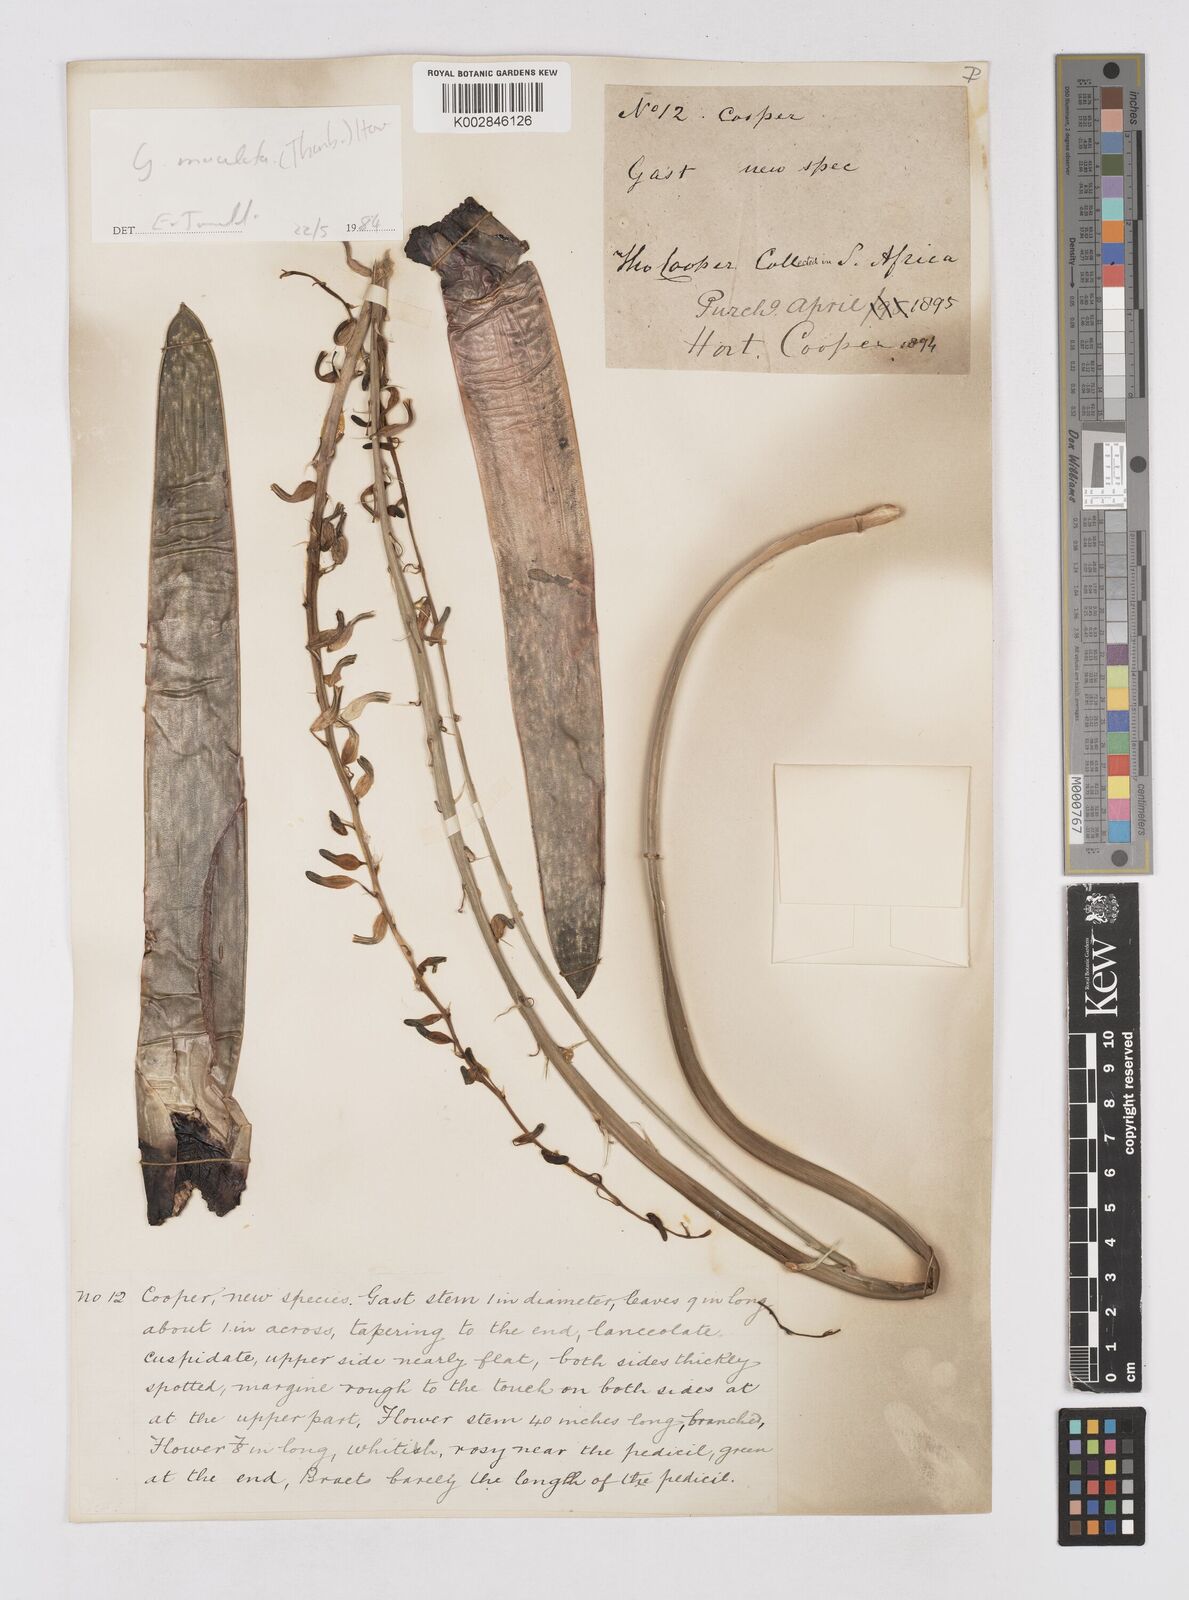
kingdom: Plantae
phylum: Tracheophyta
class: Liliopsida
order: Asparagales
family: Asphodelaceae
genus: Gasteria
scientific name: Gasteria
